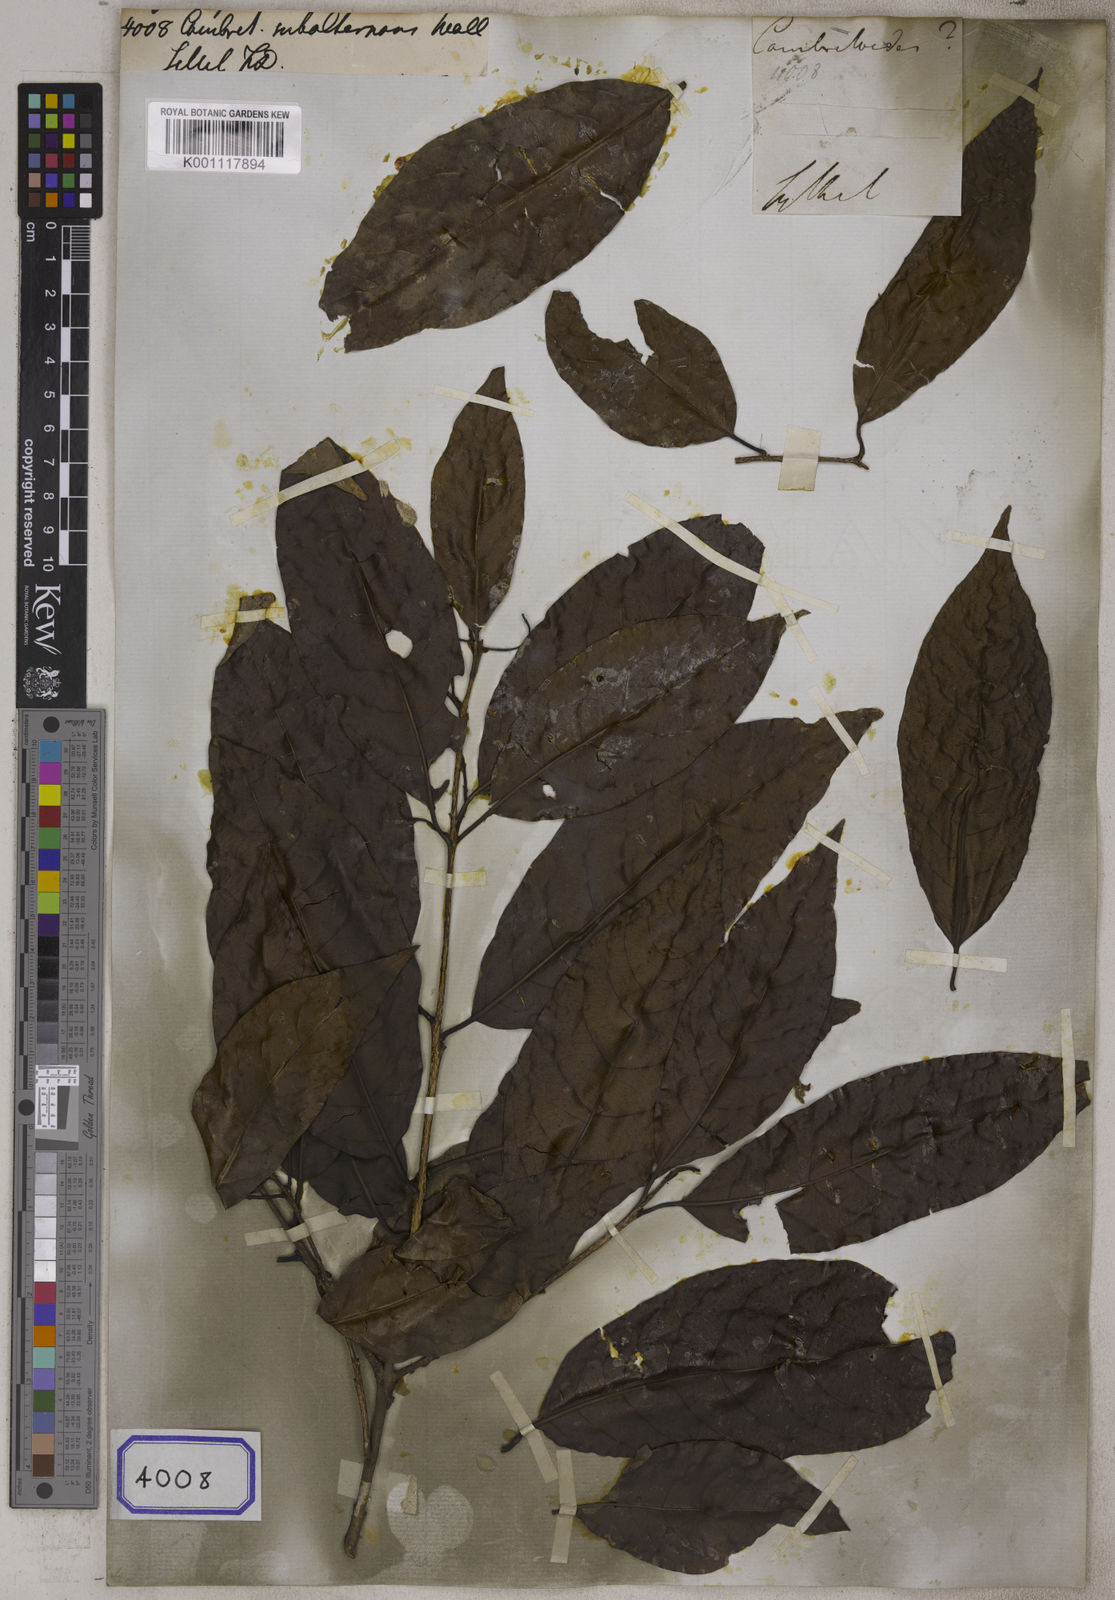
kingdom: Plantae
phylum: Tracheophyta
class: Magnoliopsida
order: Myrtales
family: Combretaceae
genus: Combretum
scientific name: Combretum trifoliatum
